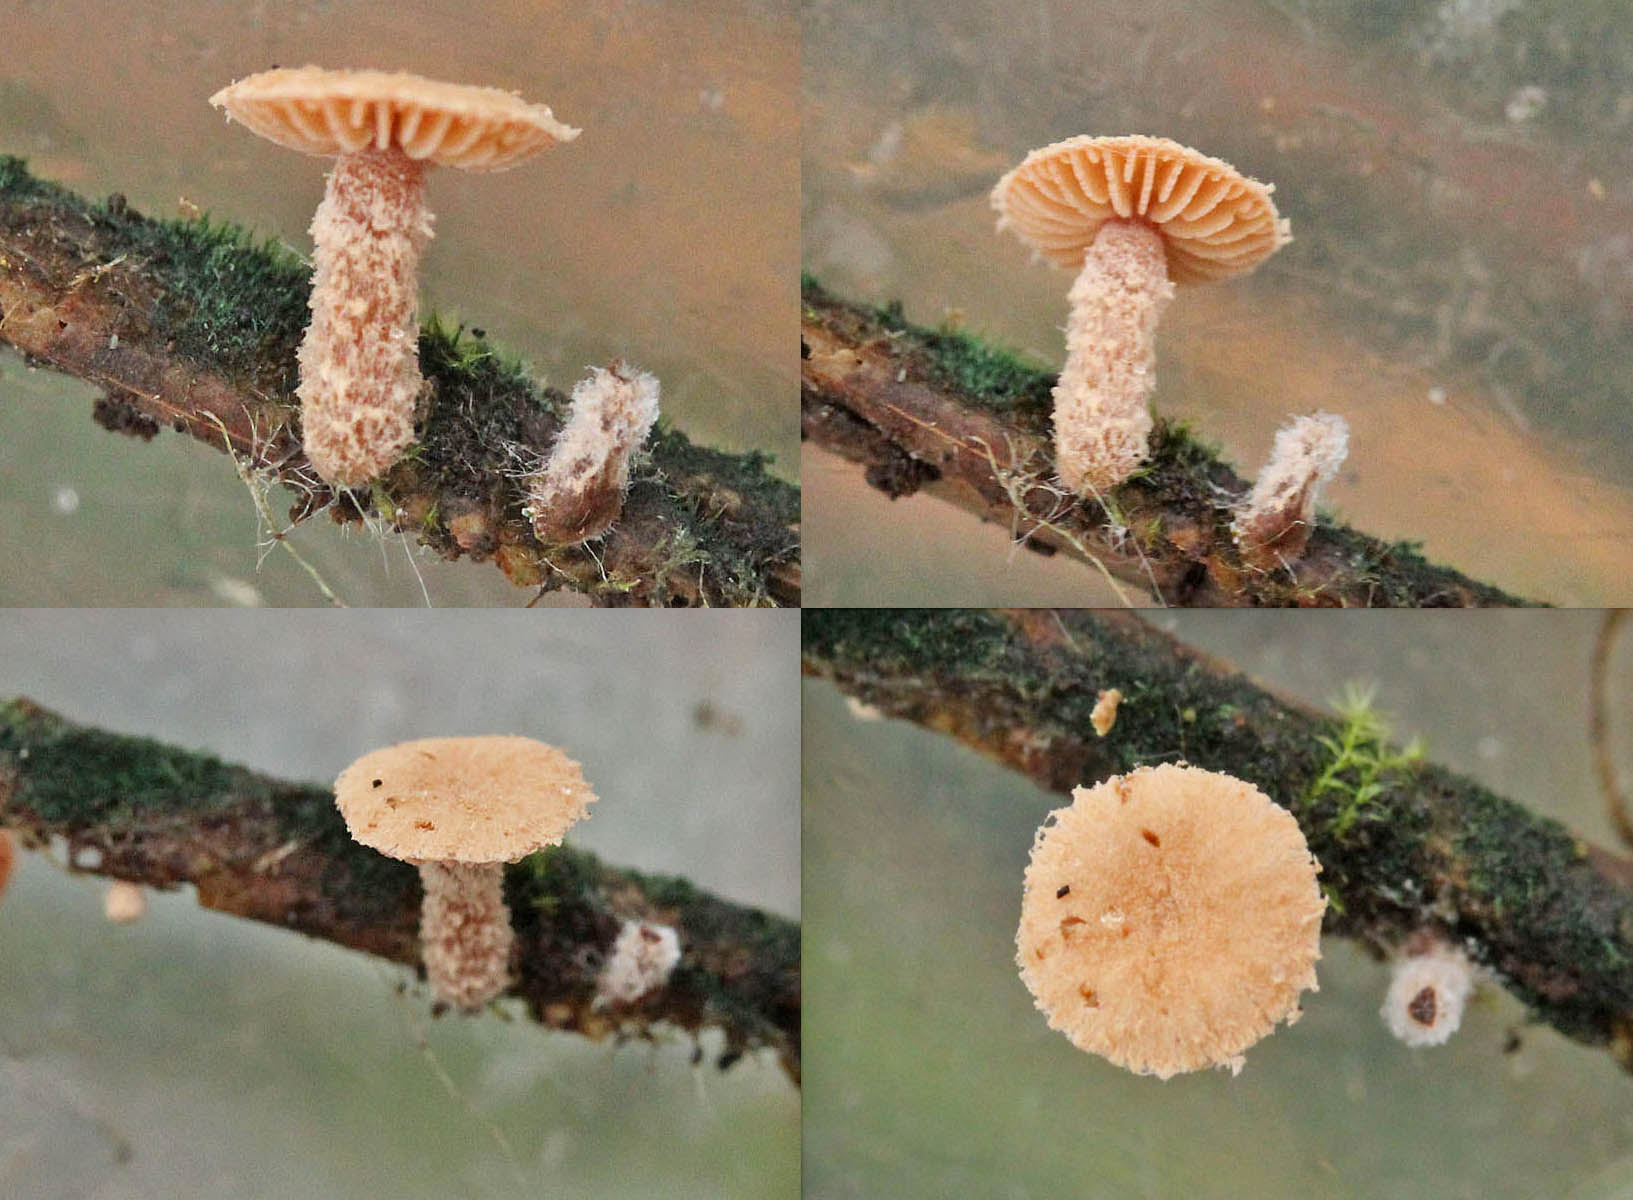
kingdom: Fungi
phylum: Basidiomycota
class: Agaricomycetes
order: Agaricales
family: Tubariaceae
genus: Flammulaster
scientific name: Flammulaster carpophilus
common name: bøge-grynskælhat
